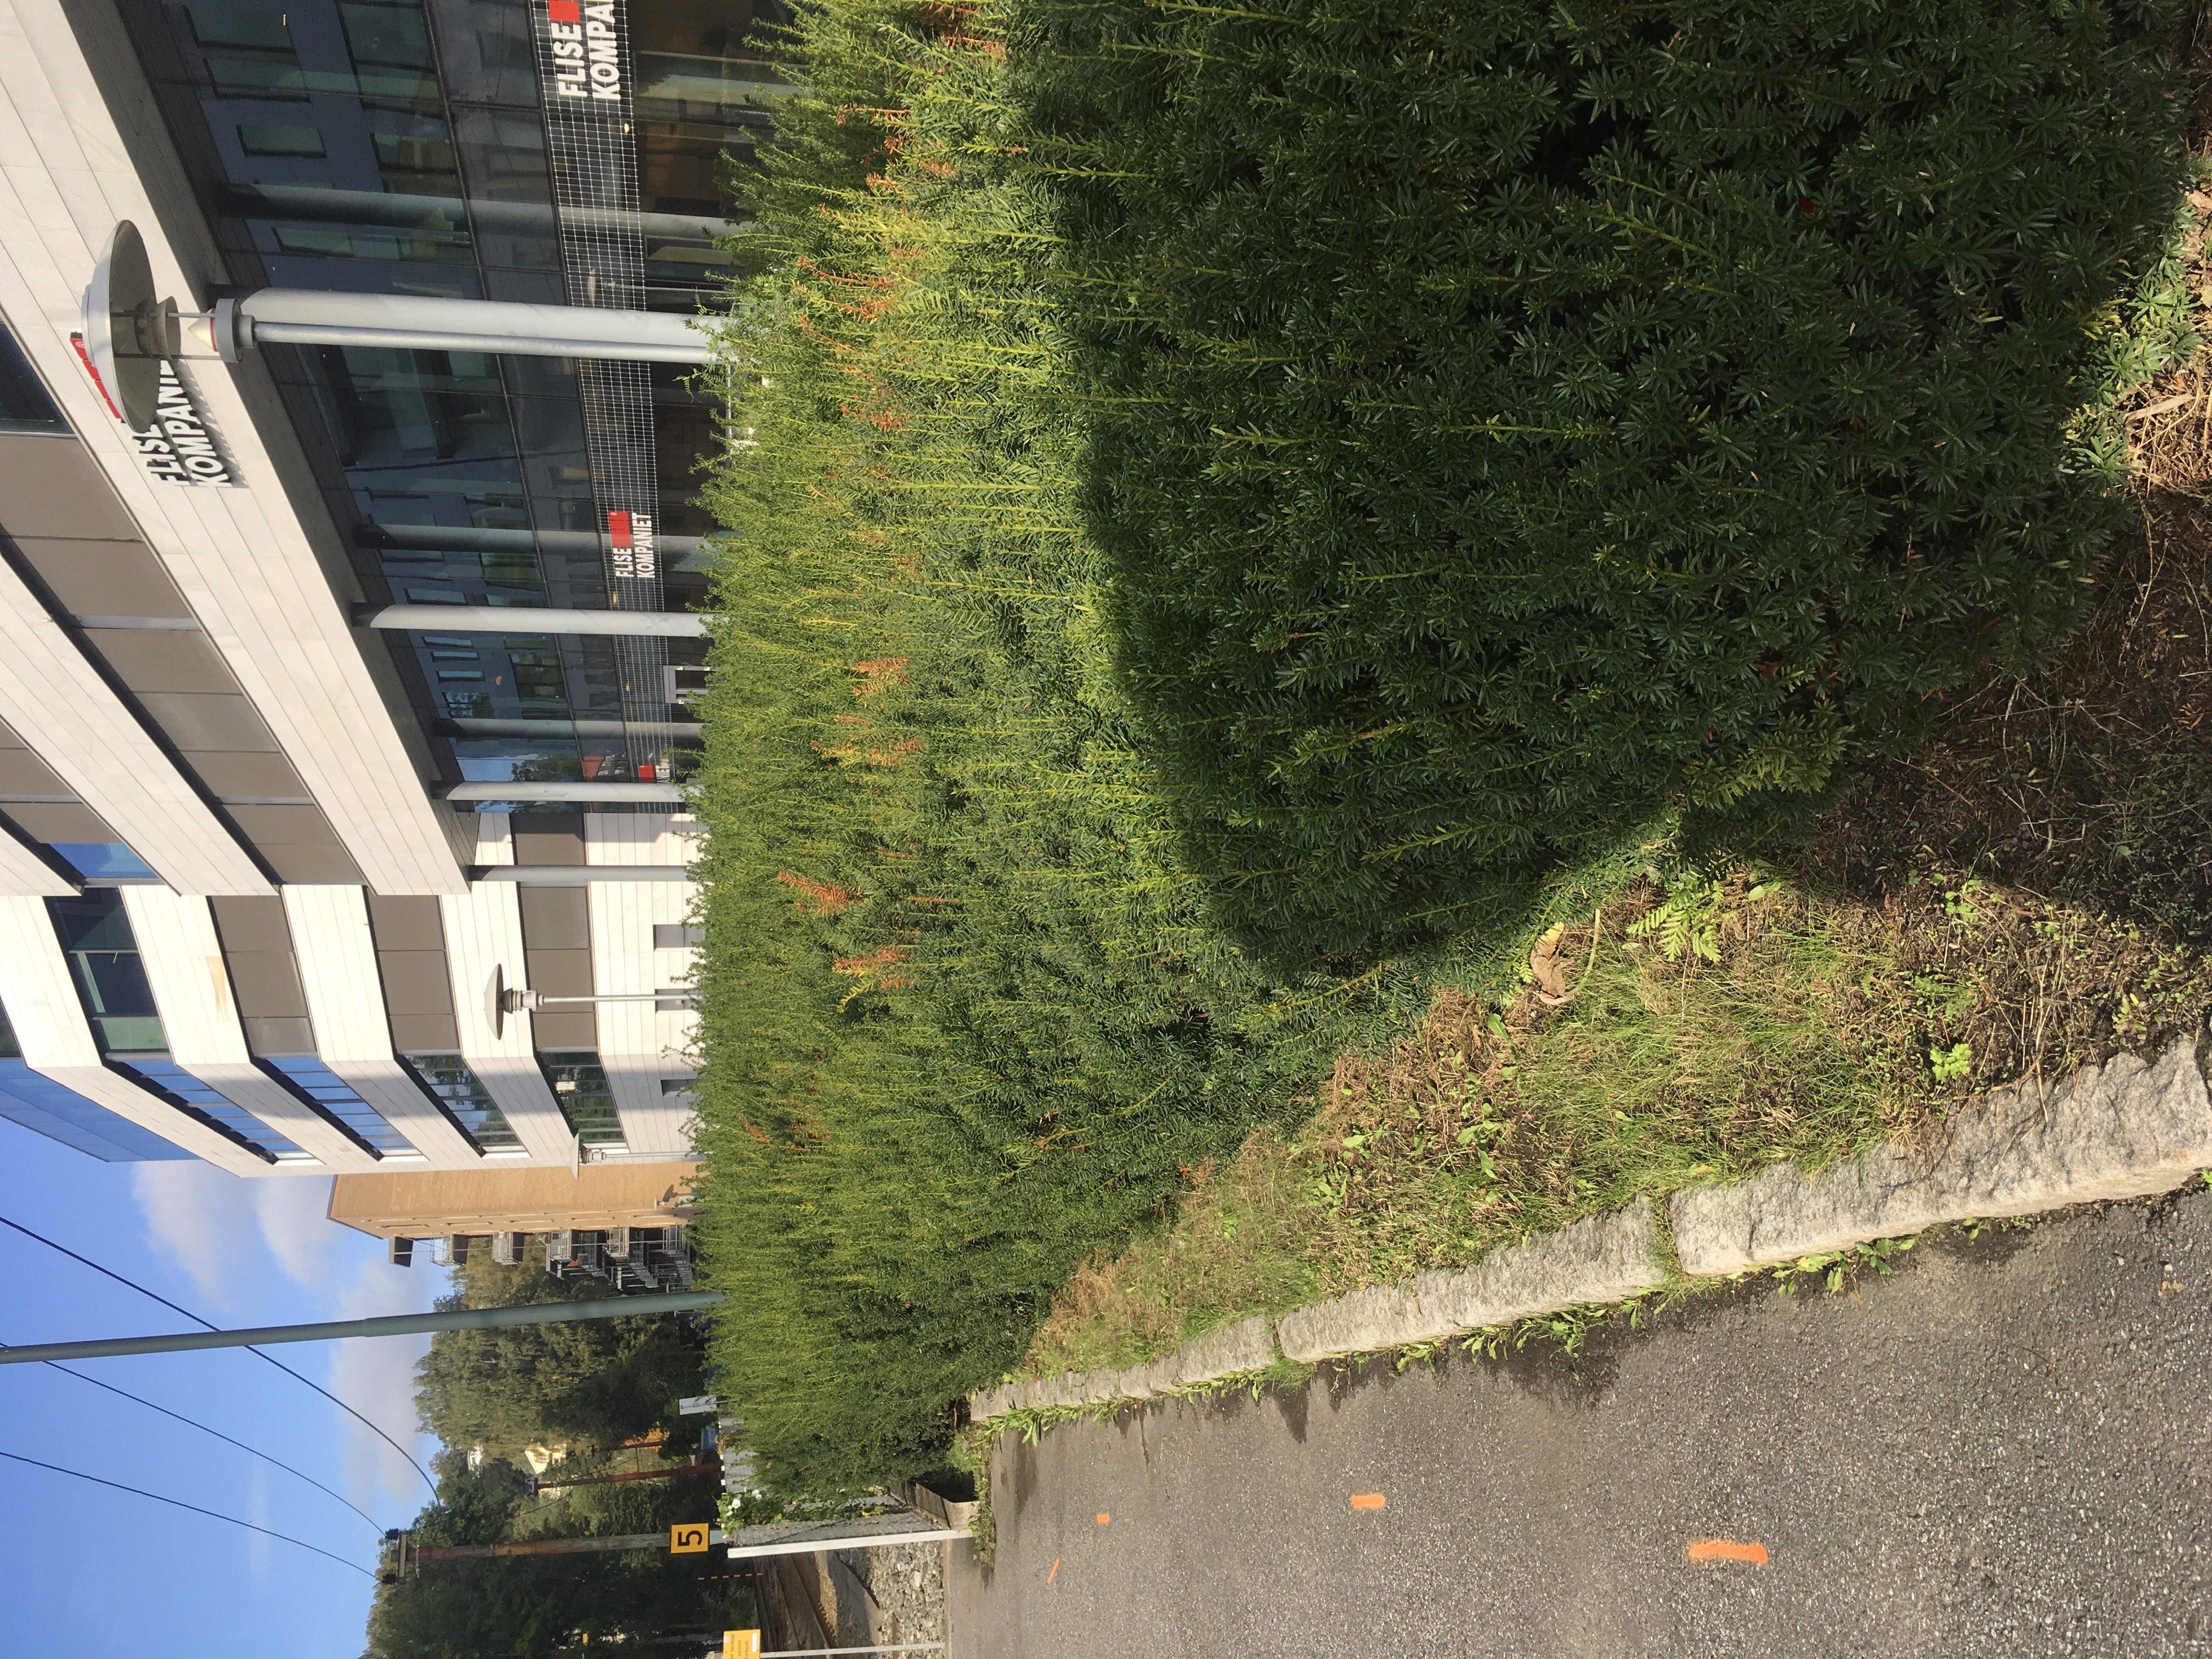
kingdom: Plantae
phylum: Tracheophyta
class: Pinopsida
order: Pinales
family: Taxaceae
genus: Taxus
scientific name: Taxus media
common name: hybridbarlind
